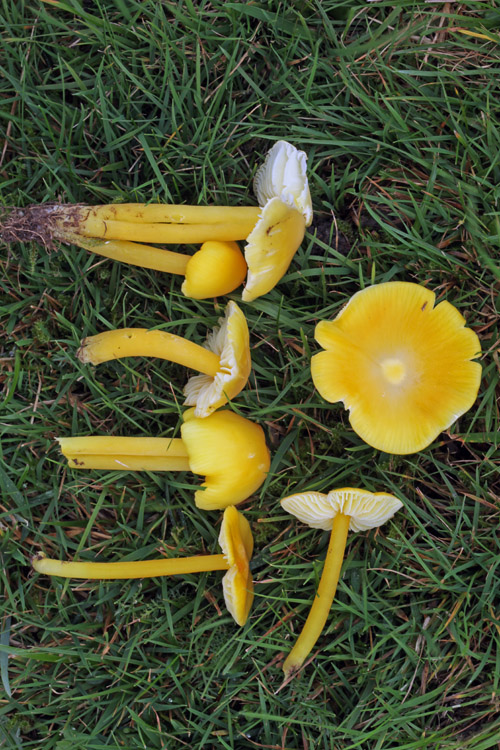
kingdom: Fungi
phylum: Basidiomycota
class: Agaricomycetes
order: Agaricales
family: Hygrophoraceae
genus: Hygrocybe
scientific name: Hygrocybe chlorophana
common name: gul vokshat
